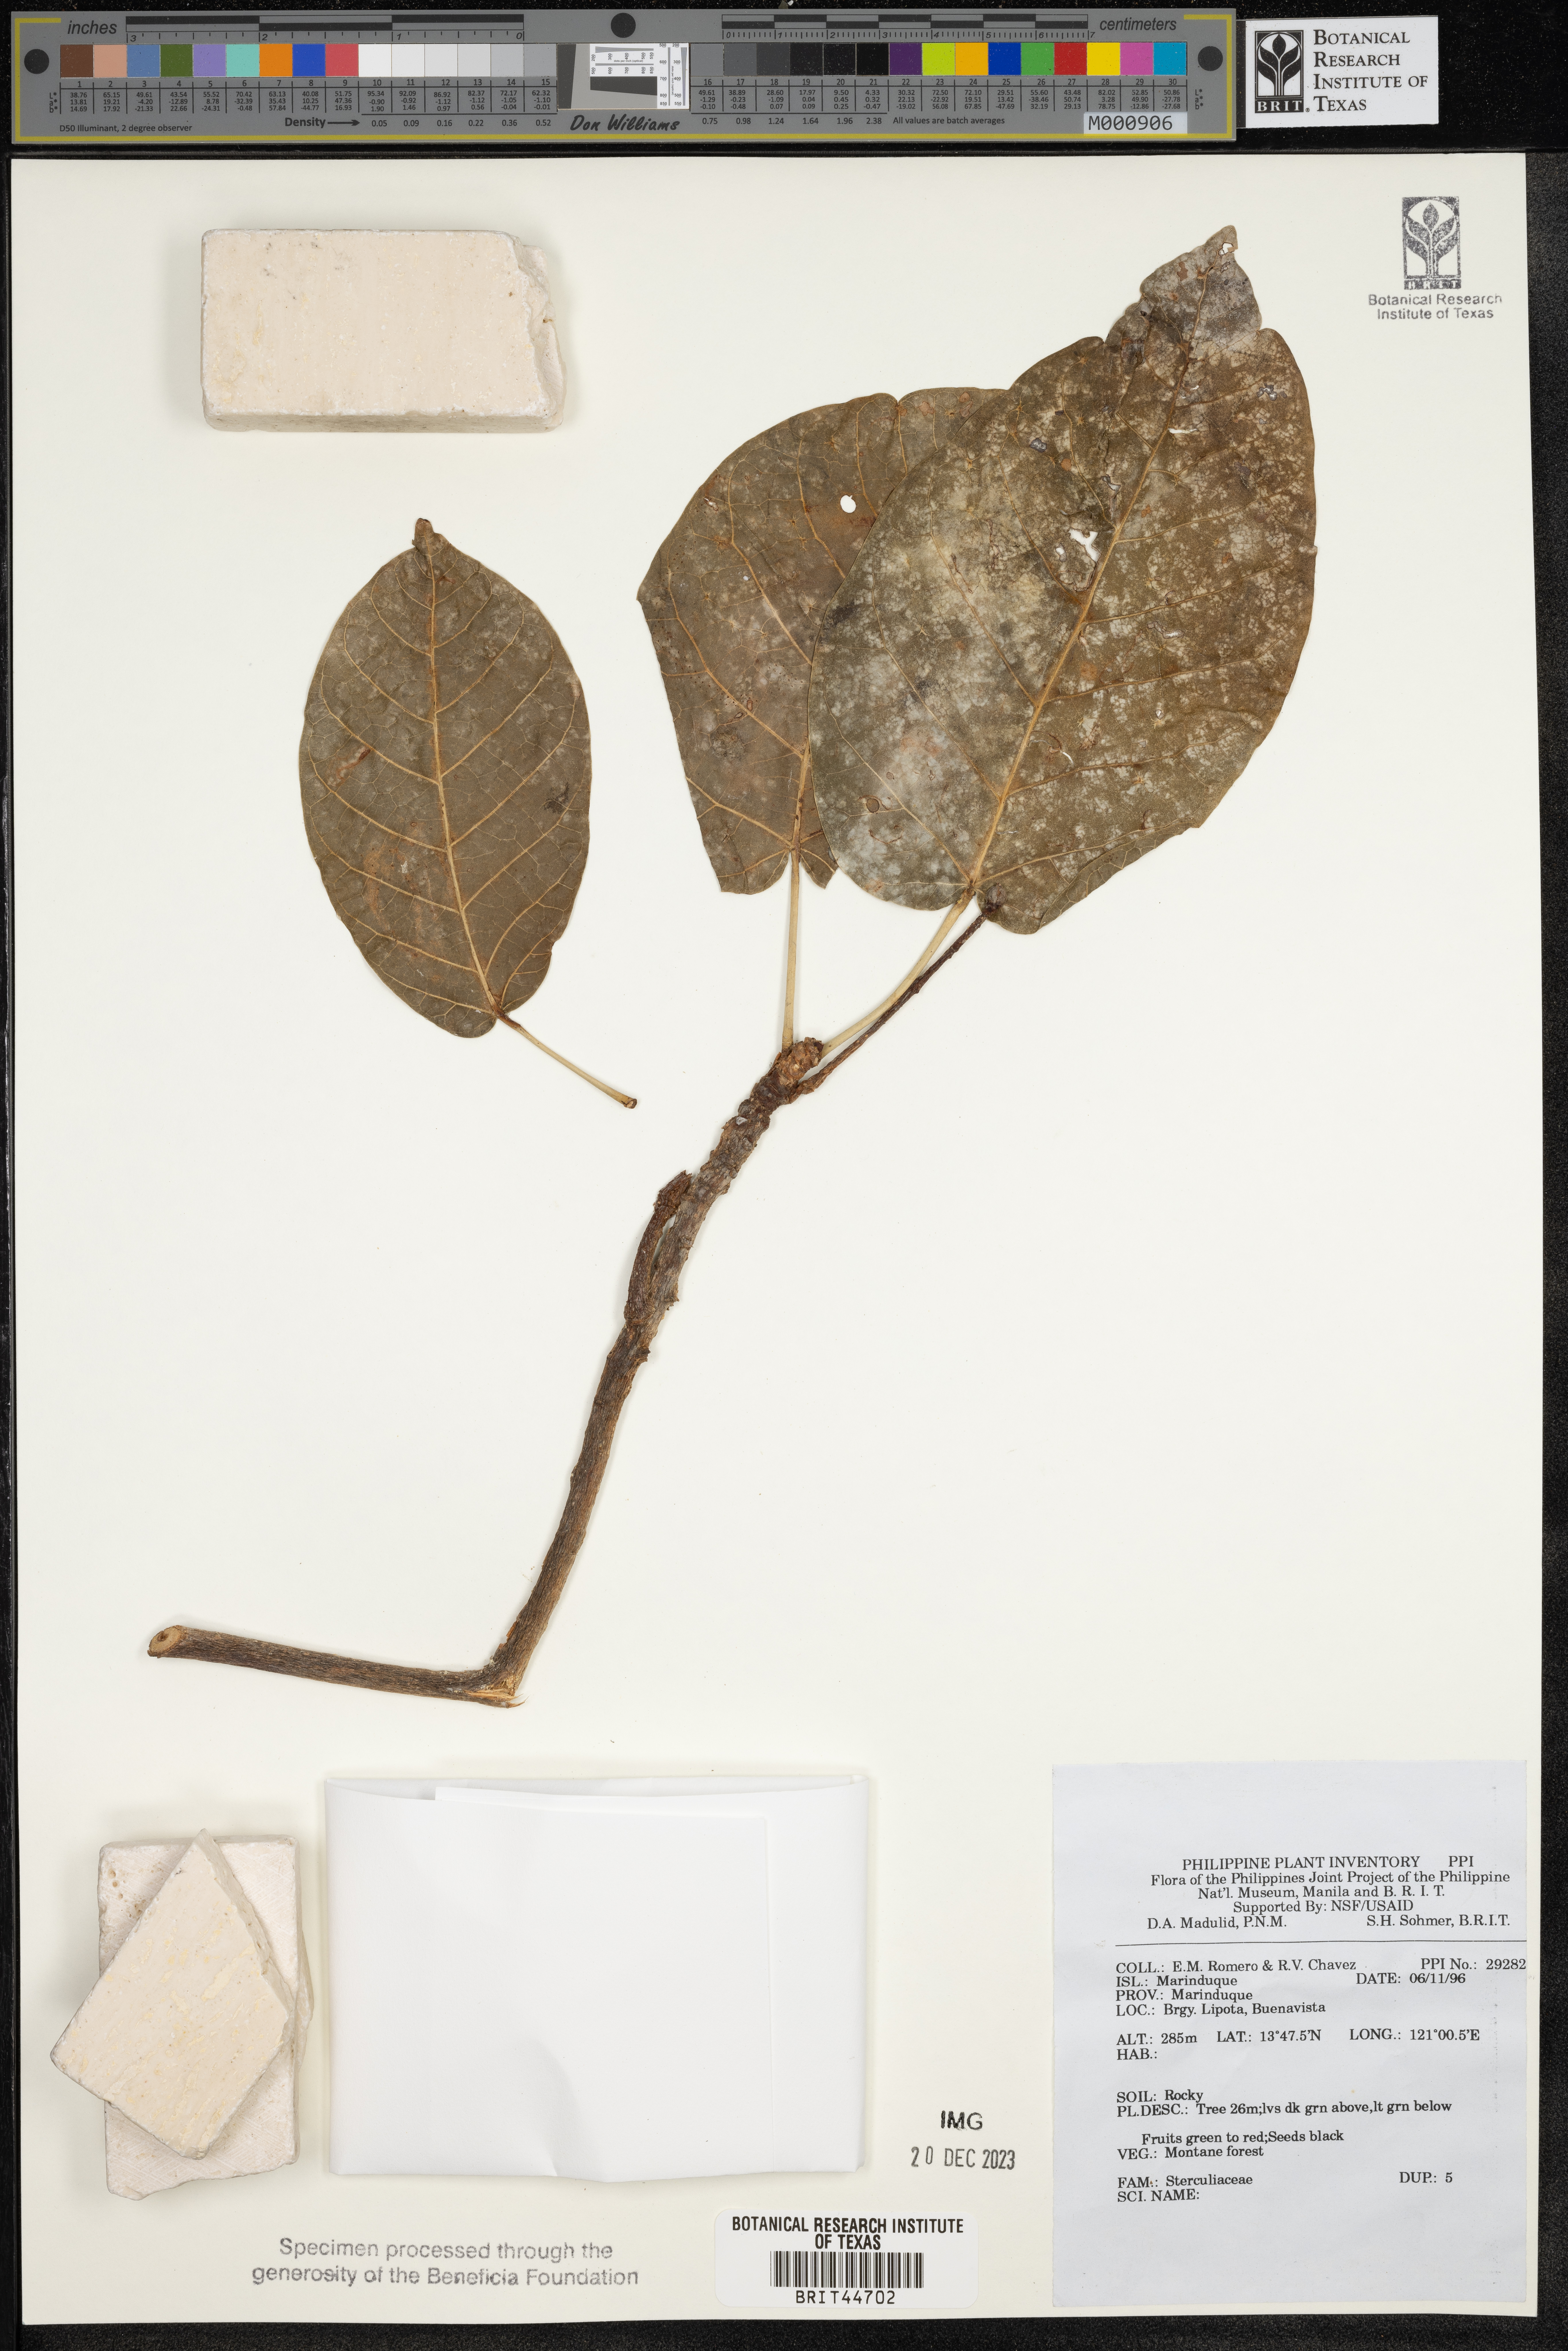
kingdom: Plantae
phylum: Tracheophyta
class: Magnoliopsida
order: Malvales
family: Sterculiaceae
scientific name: Sterculiaceae
